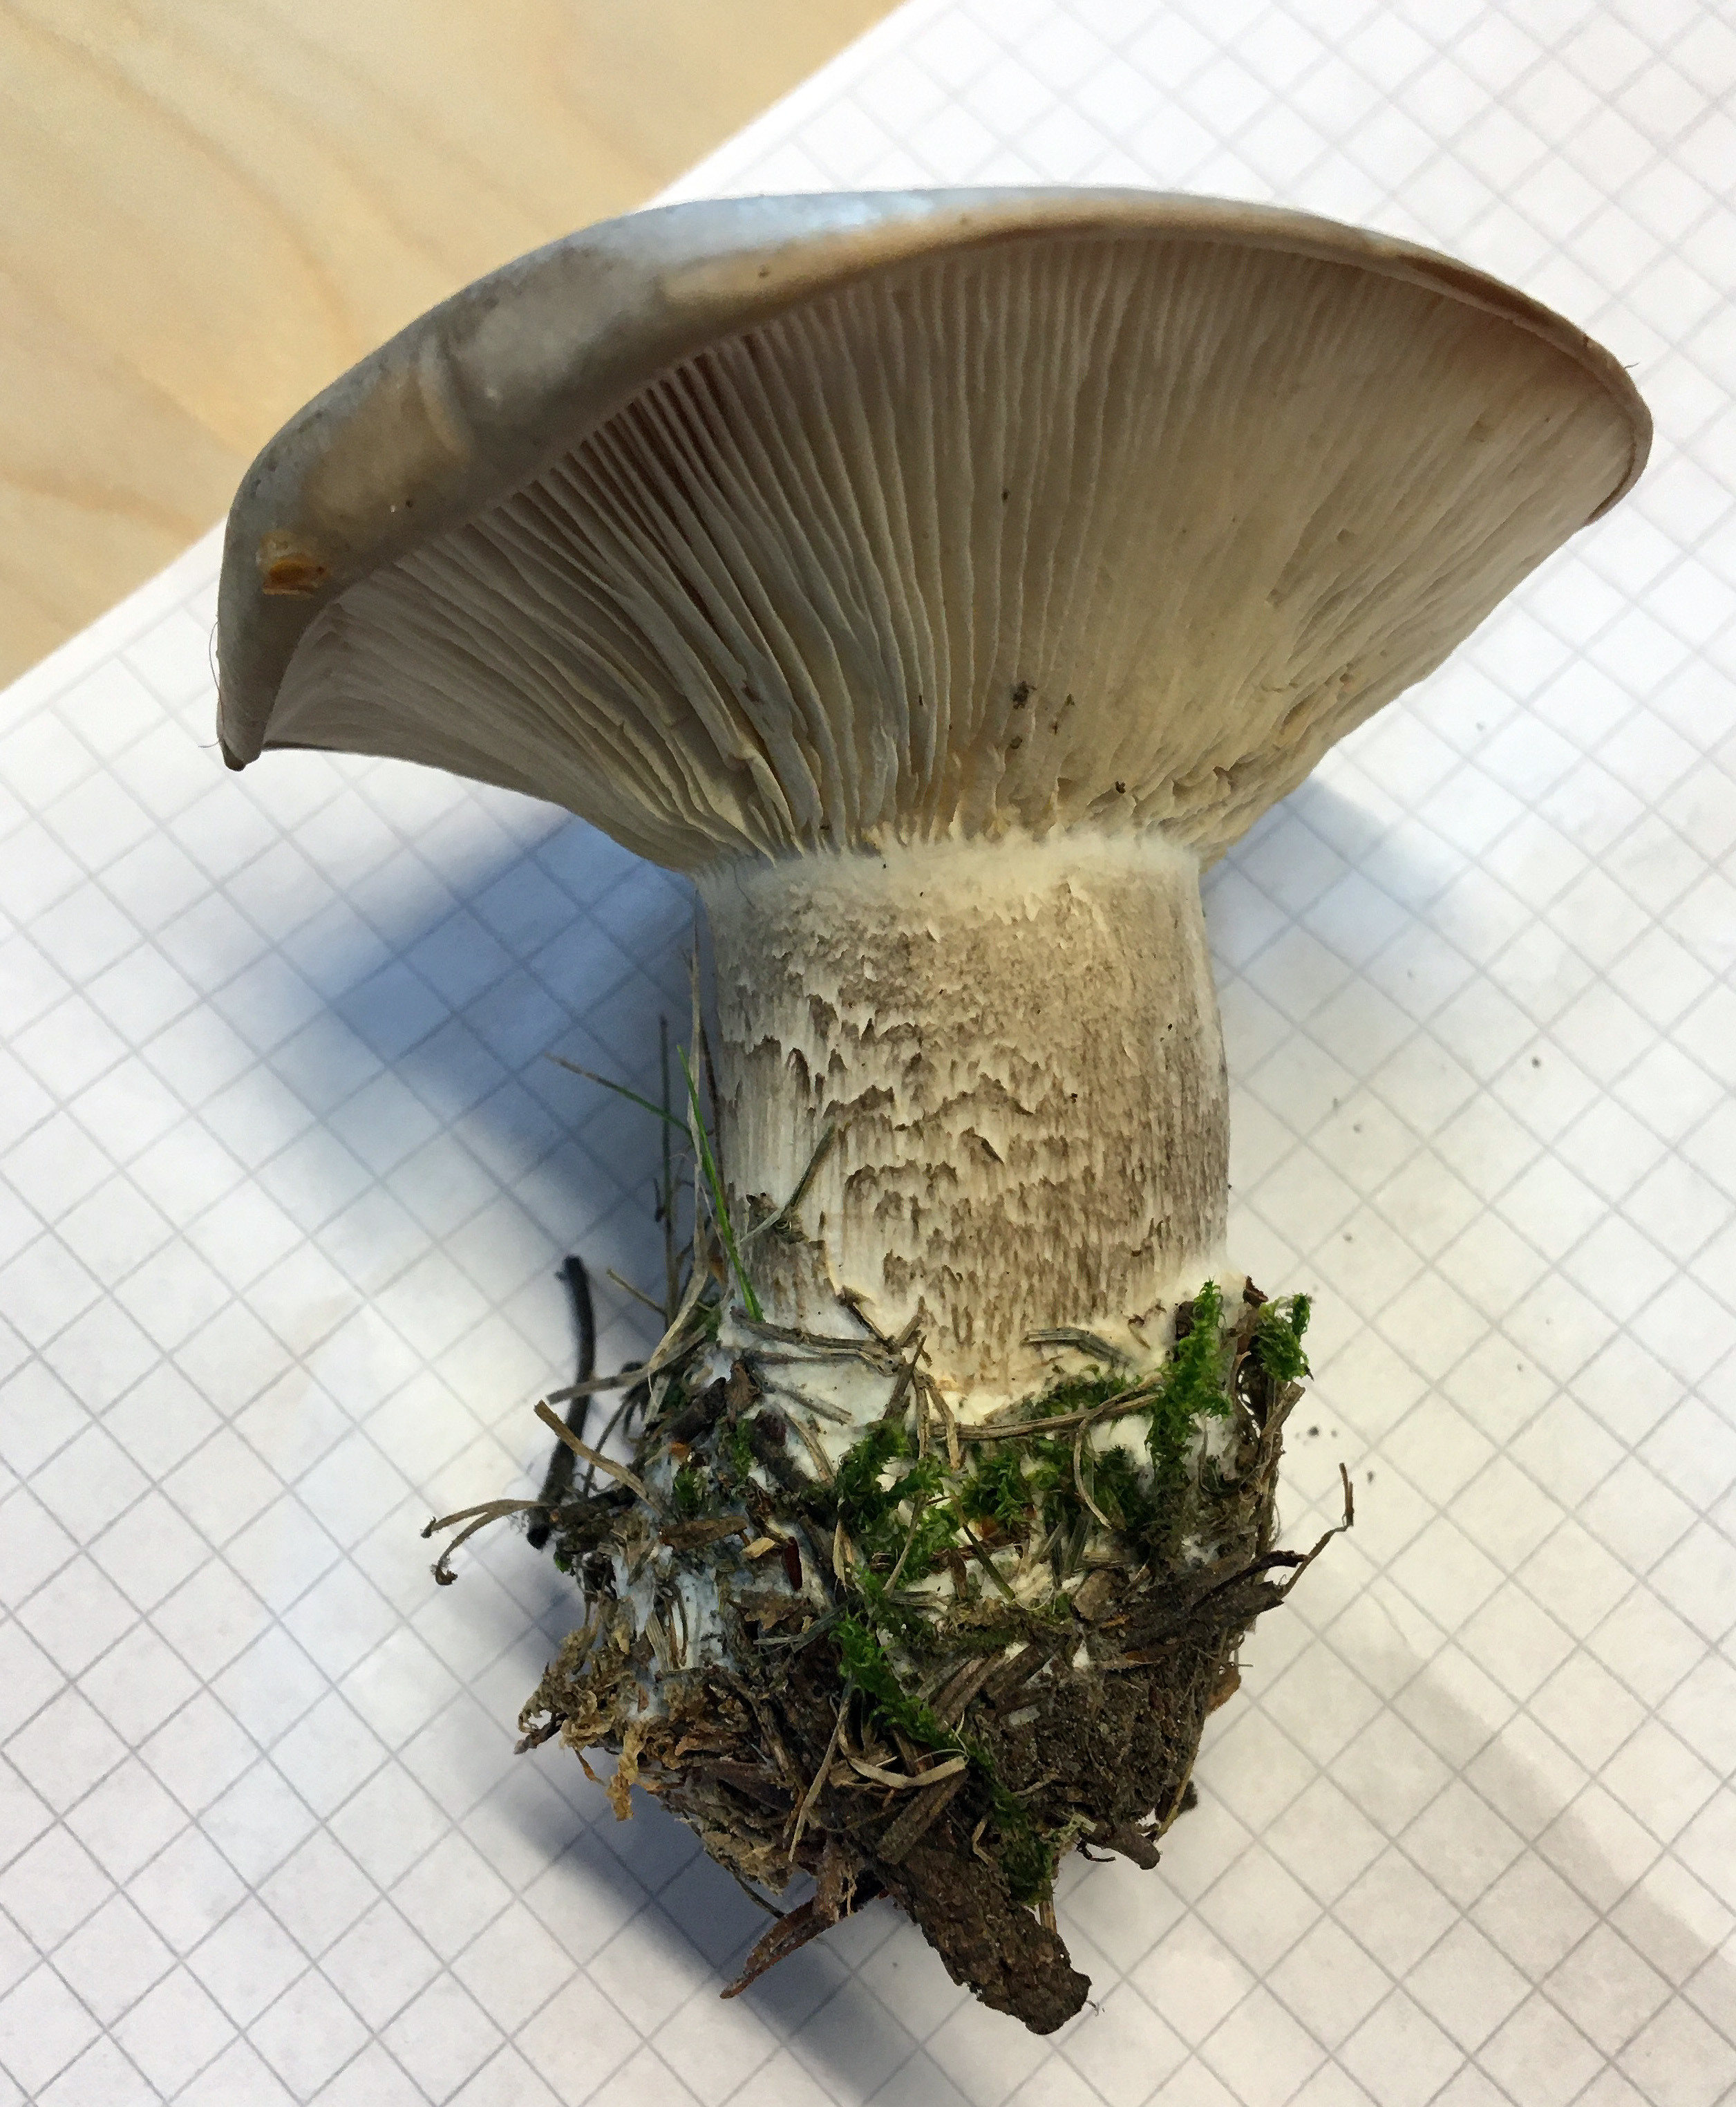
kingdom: Fungi
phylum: Basidiomycota
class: Agaricomycetes
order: Agaricales
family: Tricholomataceae
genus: Clitocybe
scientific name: Clitocybe nebularis
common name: Clouded agaric
